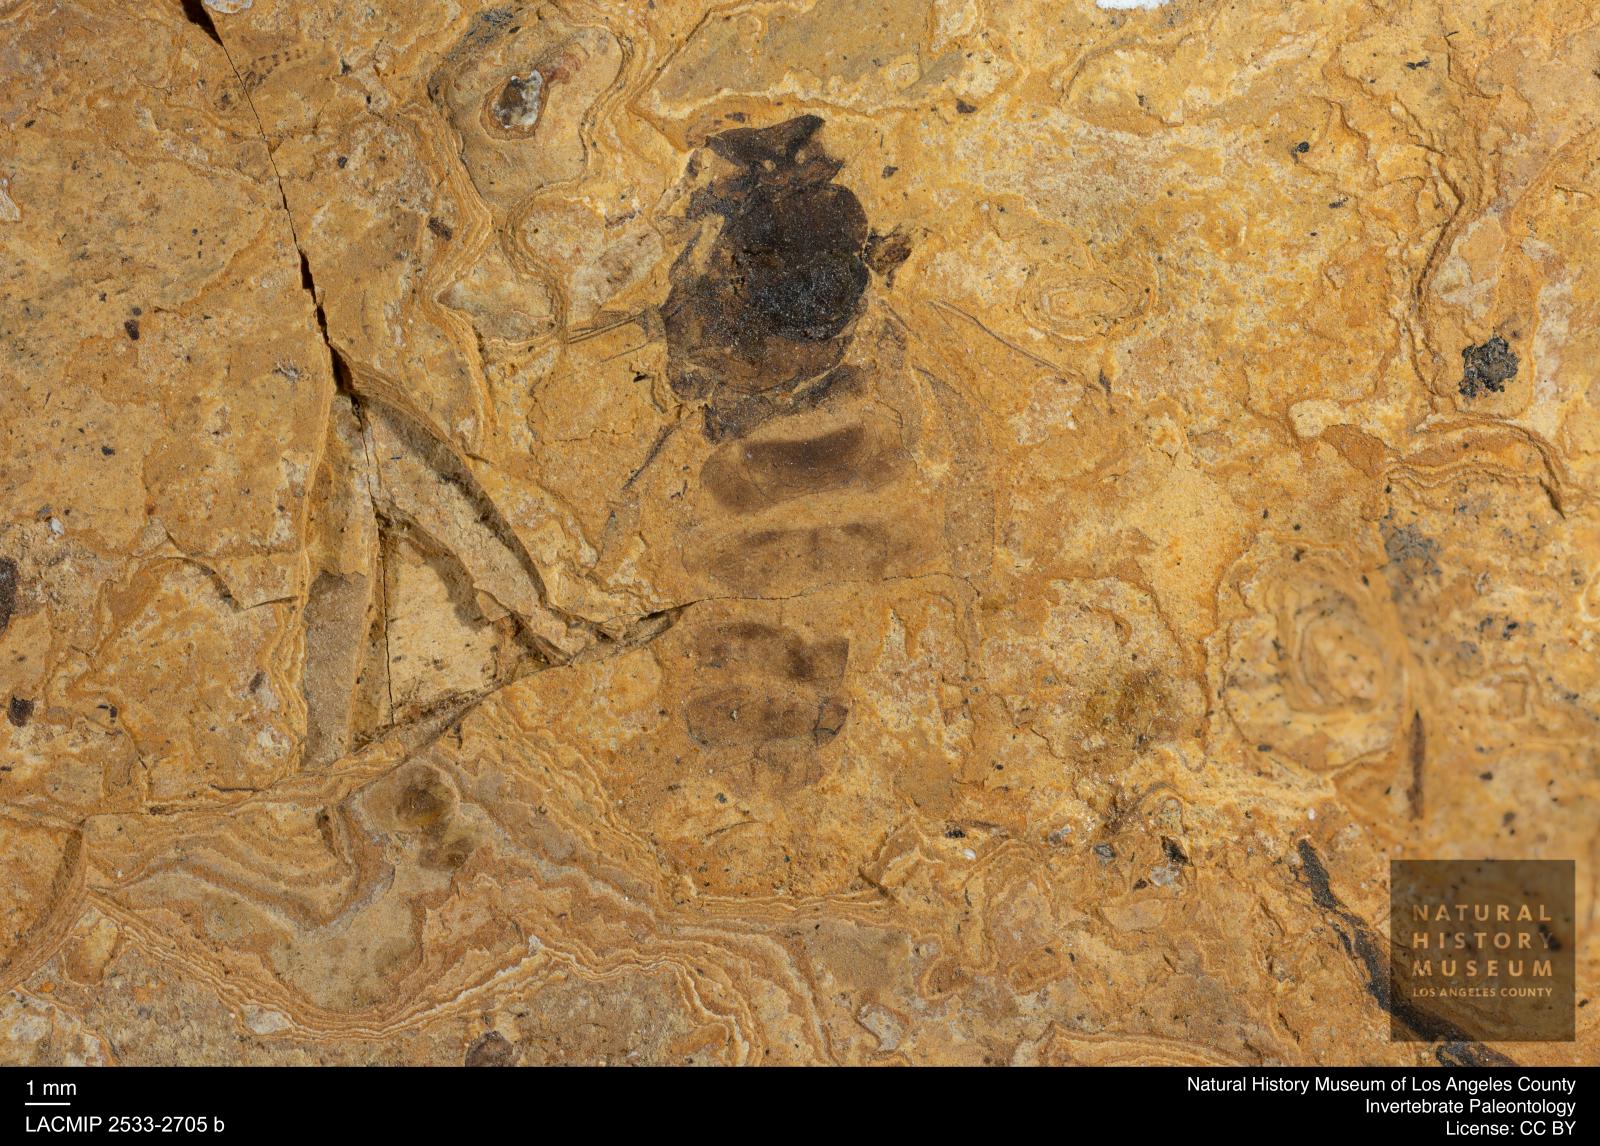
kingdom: Animalia
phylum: Arthropoda
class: Insecta
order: Hymenoptera
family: Apidae
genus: Apis
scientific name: Apis henshawi
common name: Henshaw's honey bee
